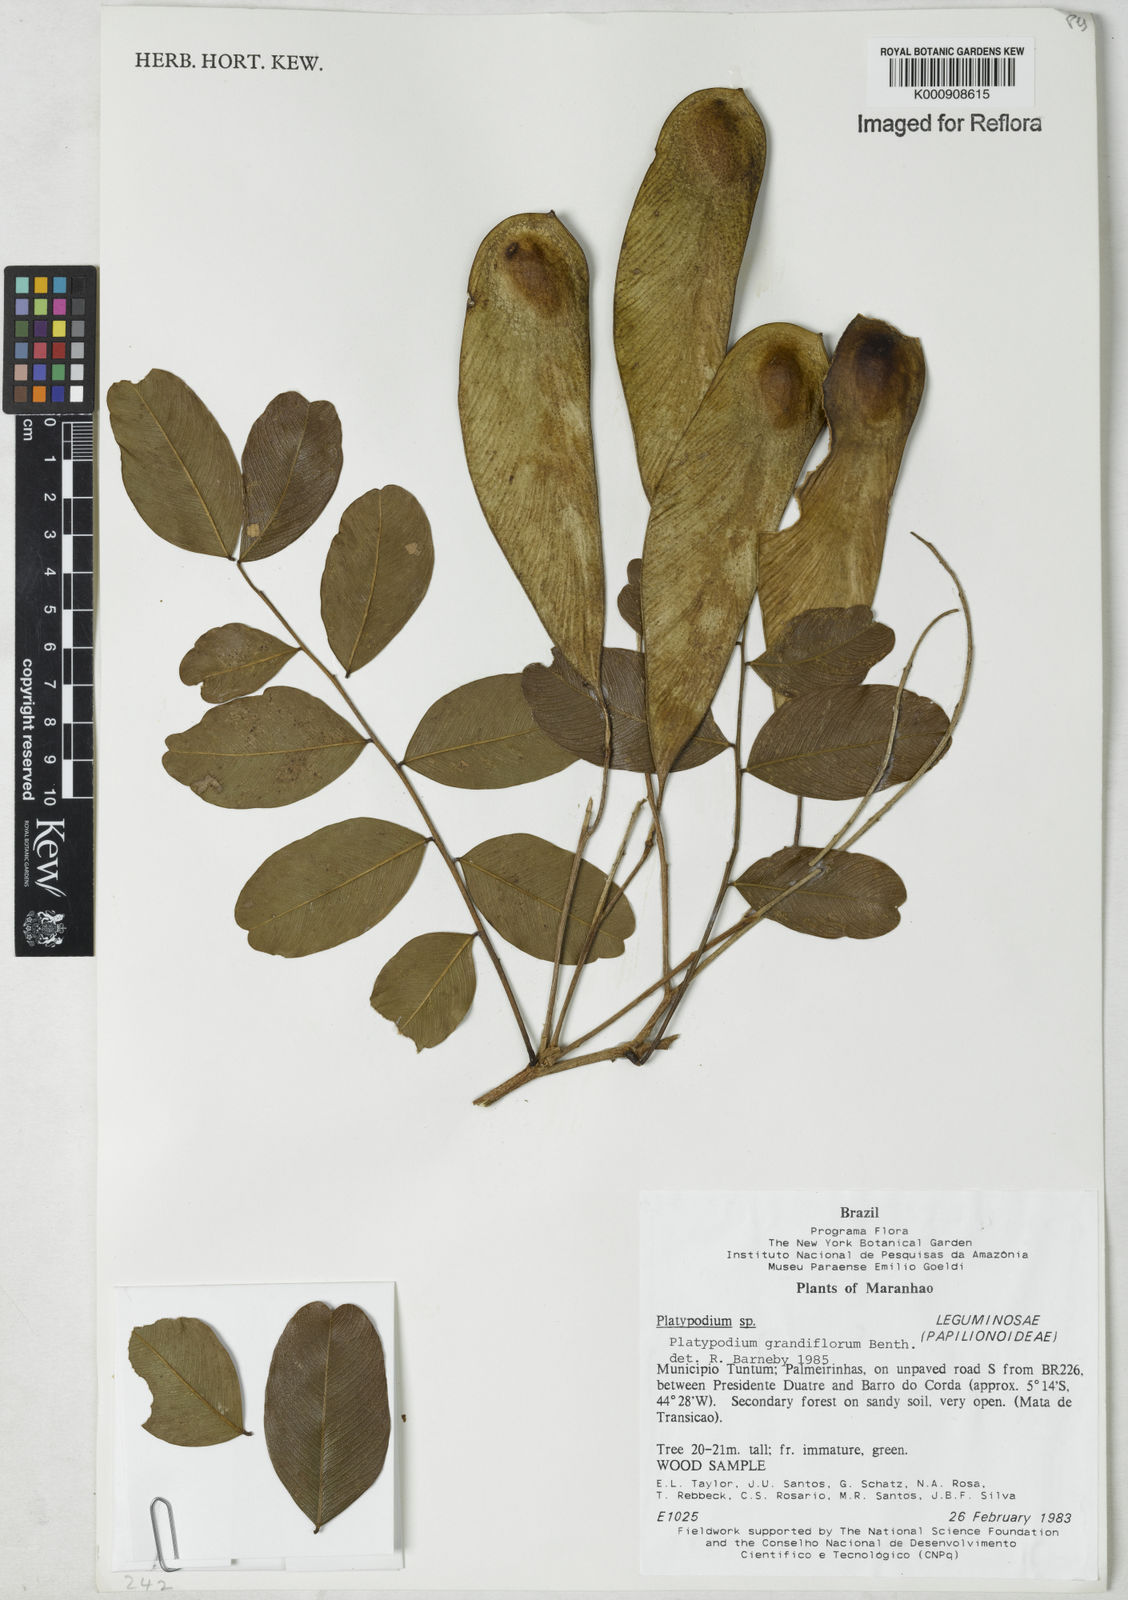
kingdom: Plantae
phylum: Tracheophyta
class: Magnoliopsida
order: Fabales
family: Fabaceae
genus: Platypodium
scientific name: Platypodium
